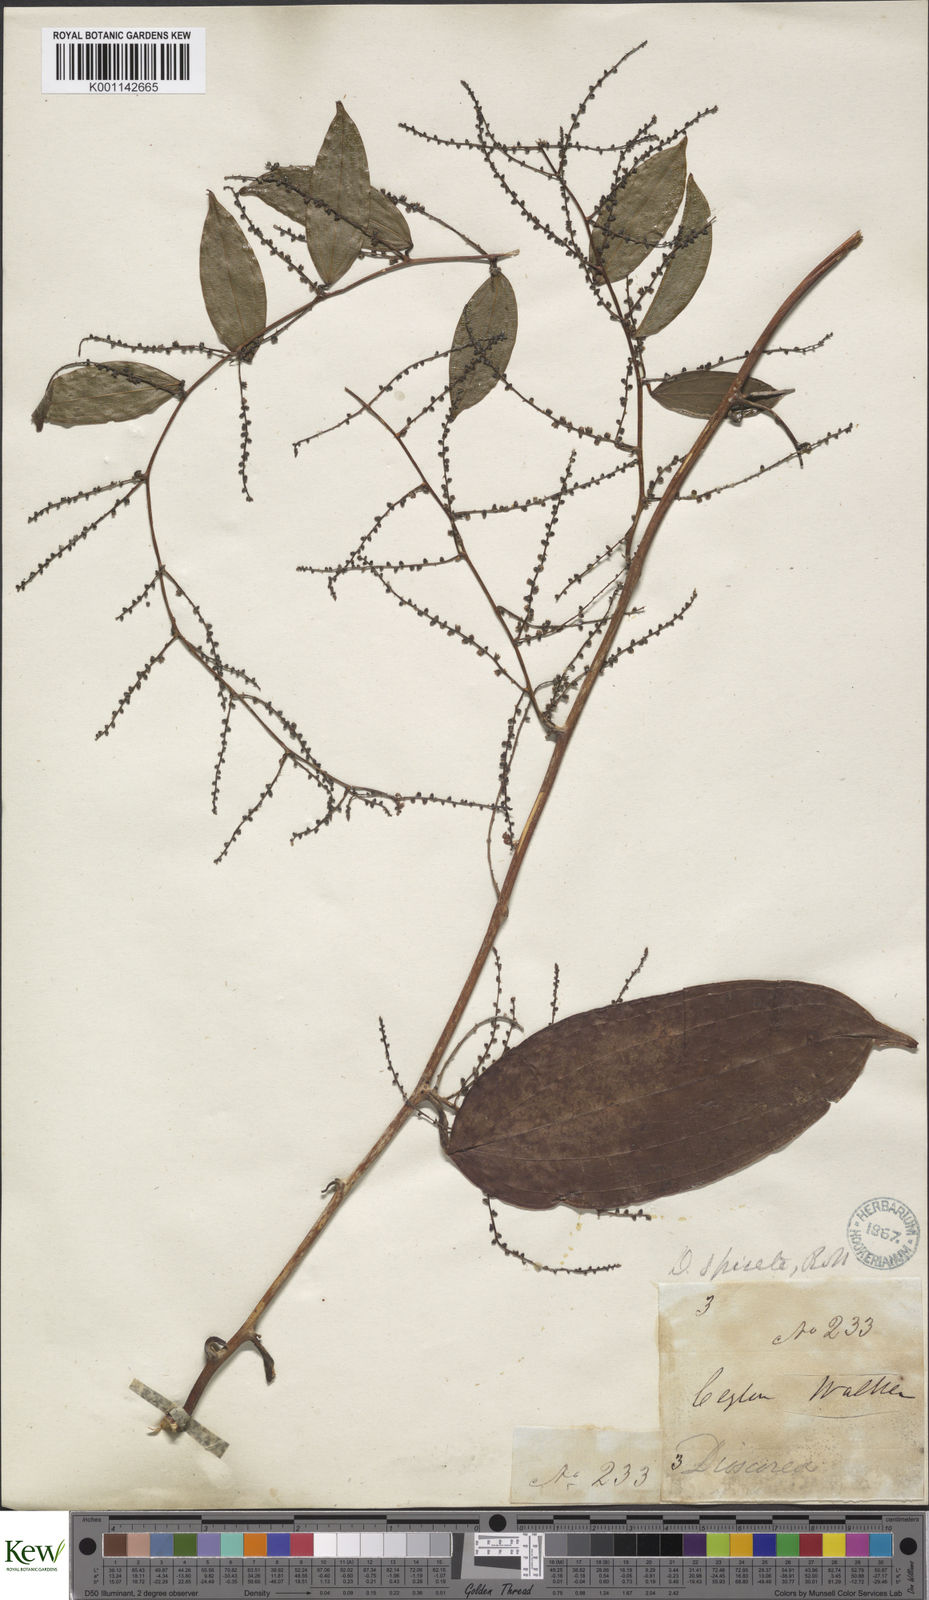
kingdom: Plantae
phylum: Tracheophyta
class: Liliopsida
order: Dioscoreales
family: Dioscoreaceae
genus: Dioscorea
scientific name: Dioscorea spicata
